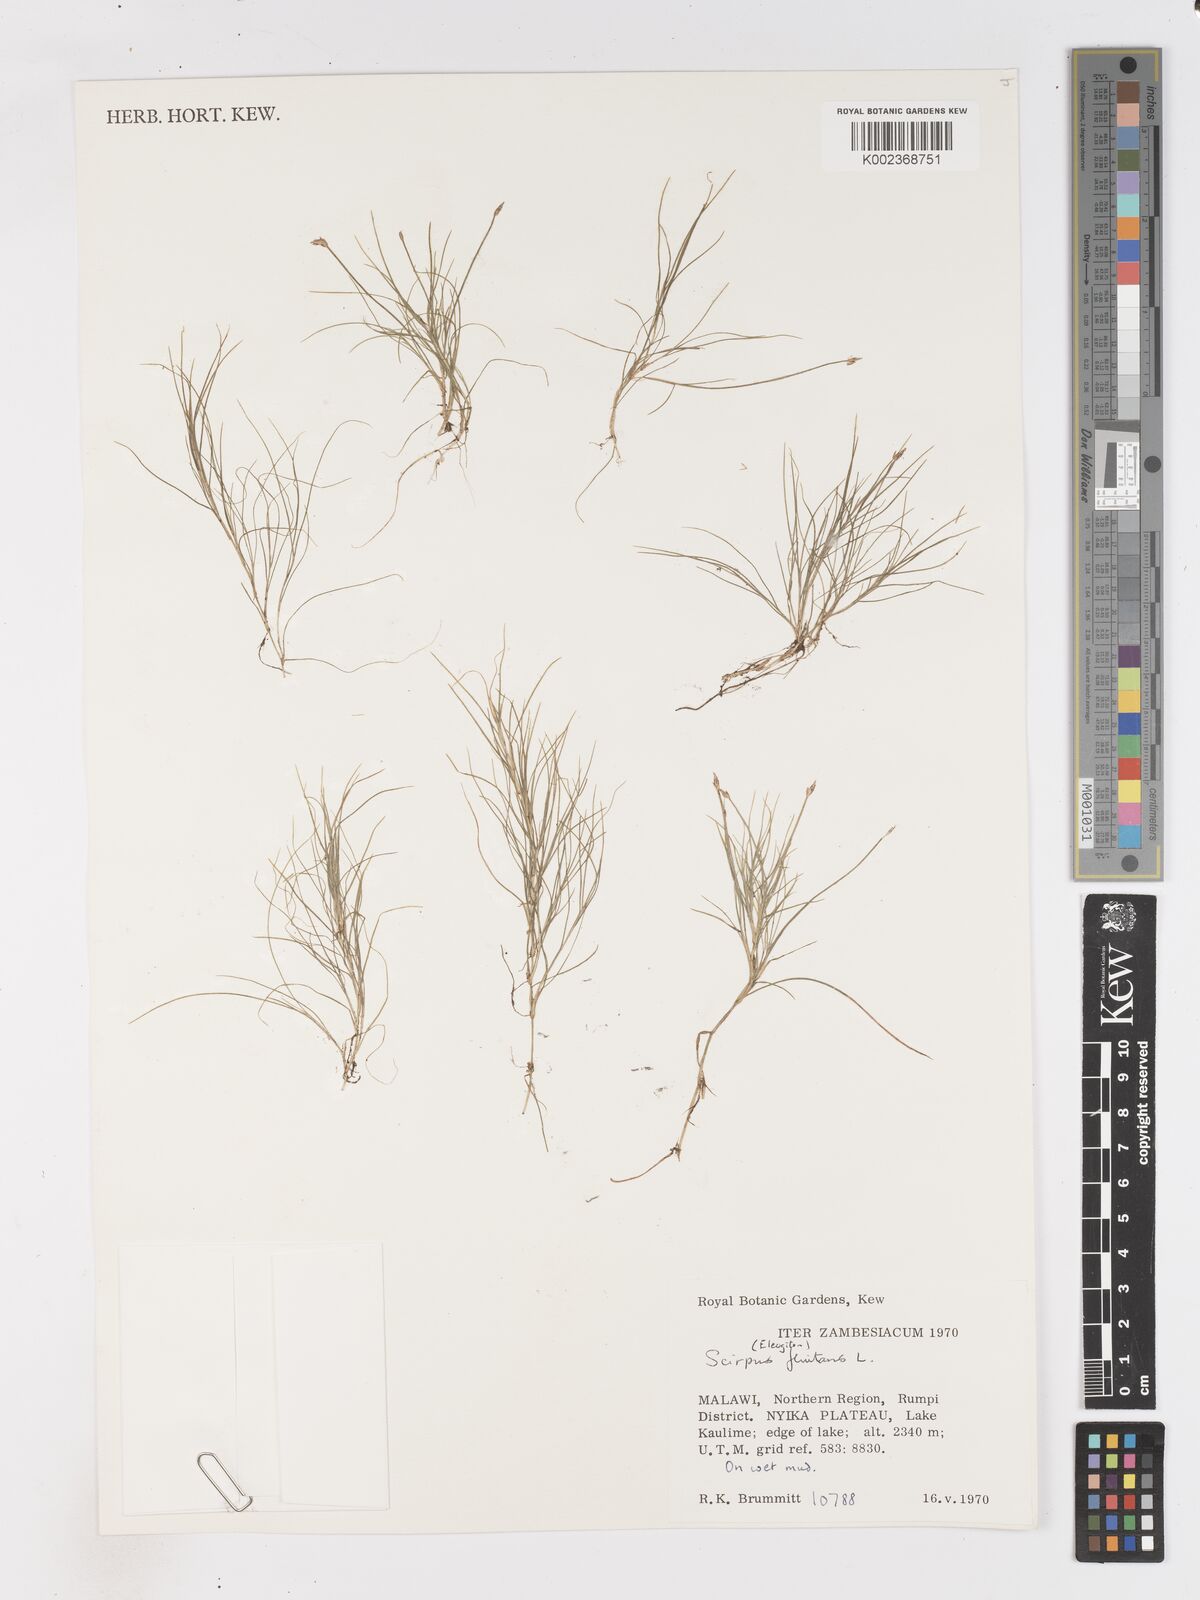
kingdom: Plantae
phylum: Tracheophyta
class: Liliopsida
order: Poales
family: Cyperaceae
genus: Isolepis
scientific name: Isolepis fluitans
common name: Floating club-rush
